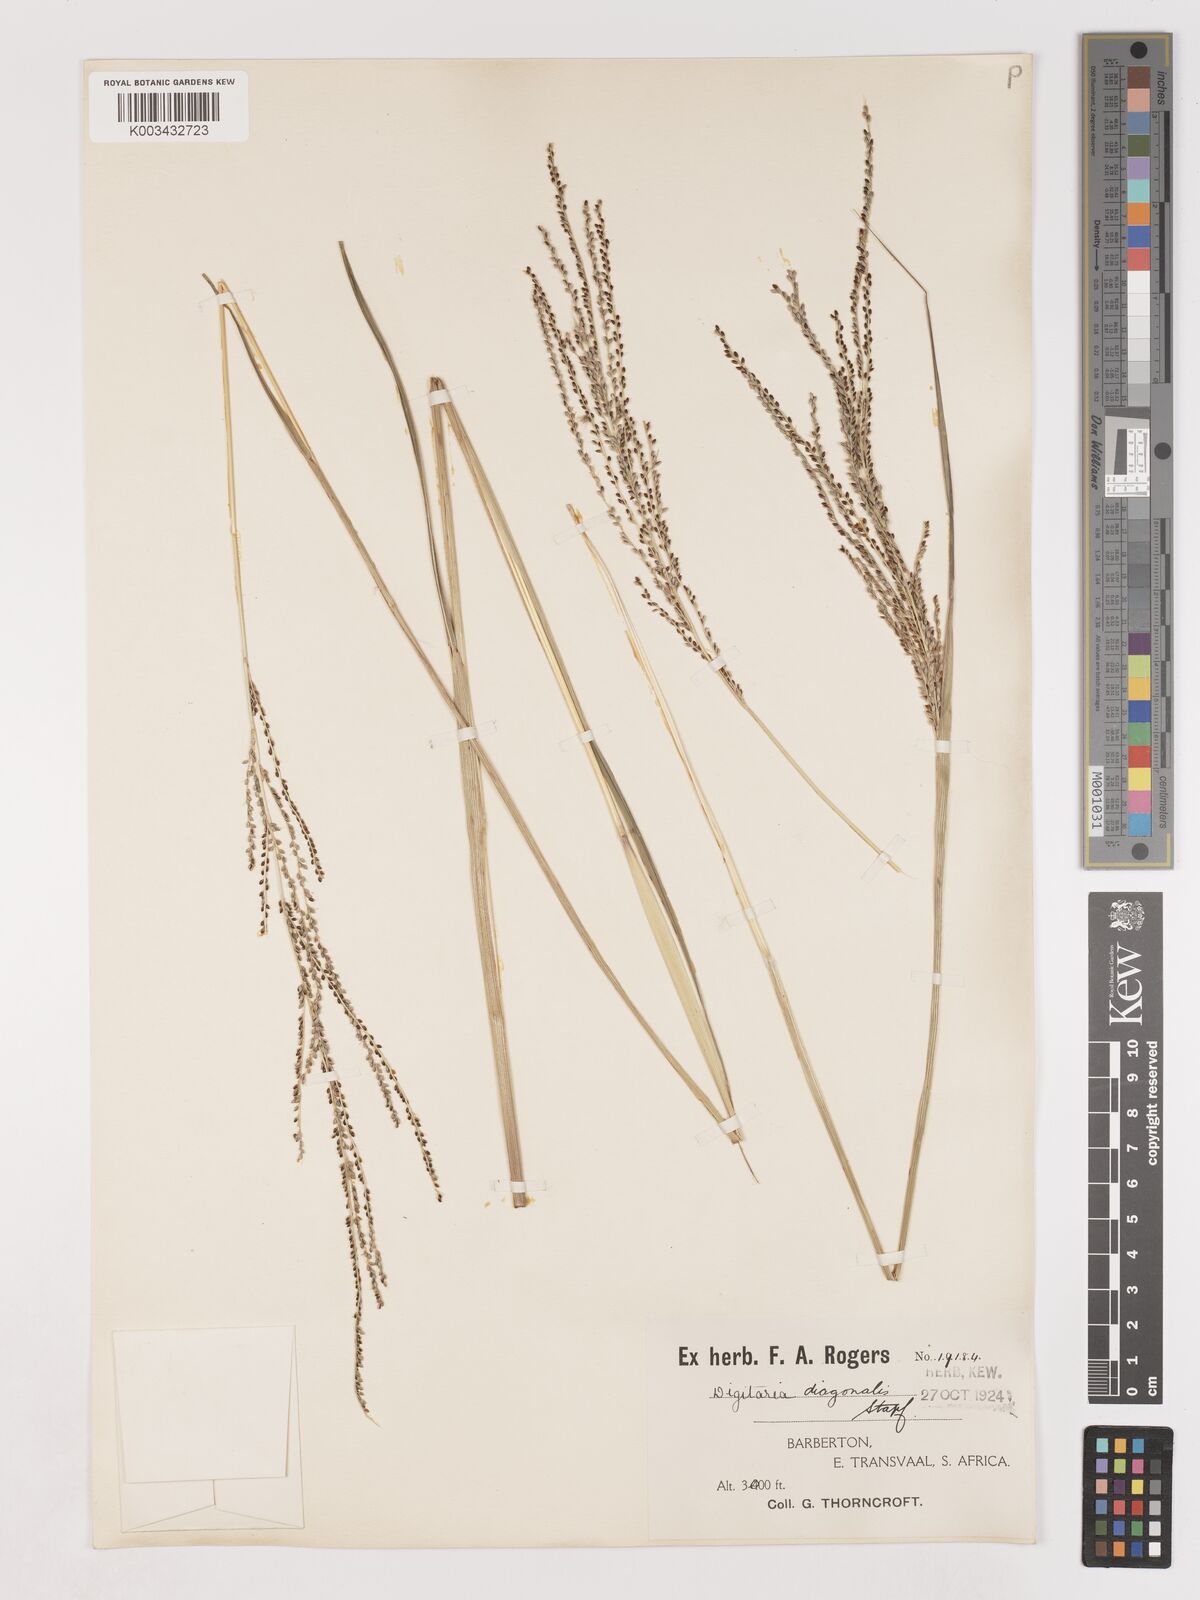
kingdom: Plantae
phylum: Tracheophyta
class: Liliopsida
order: Poales
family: Poaceae
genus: Digitaria
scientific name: Digitaria diagonalis
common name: Brown-seed finger grass
